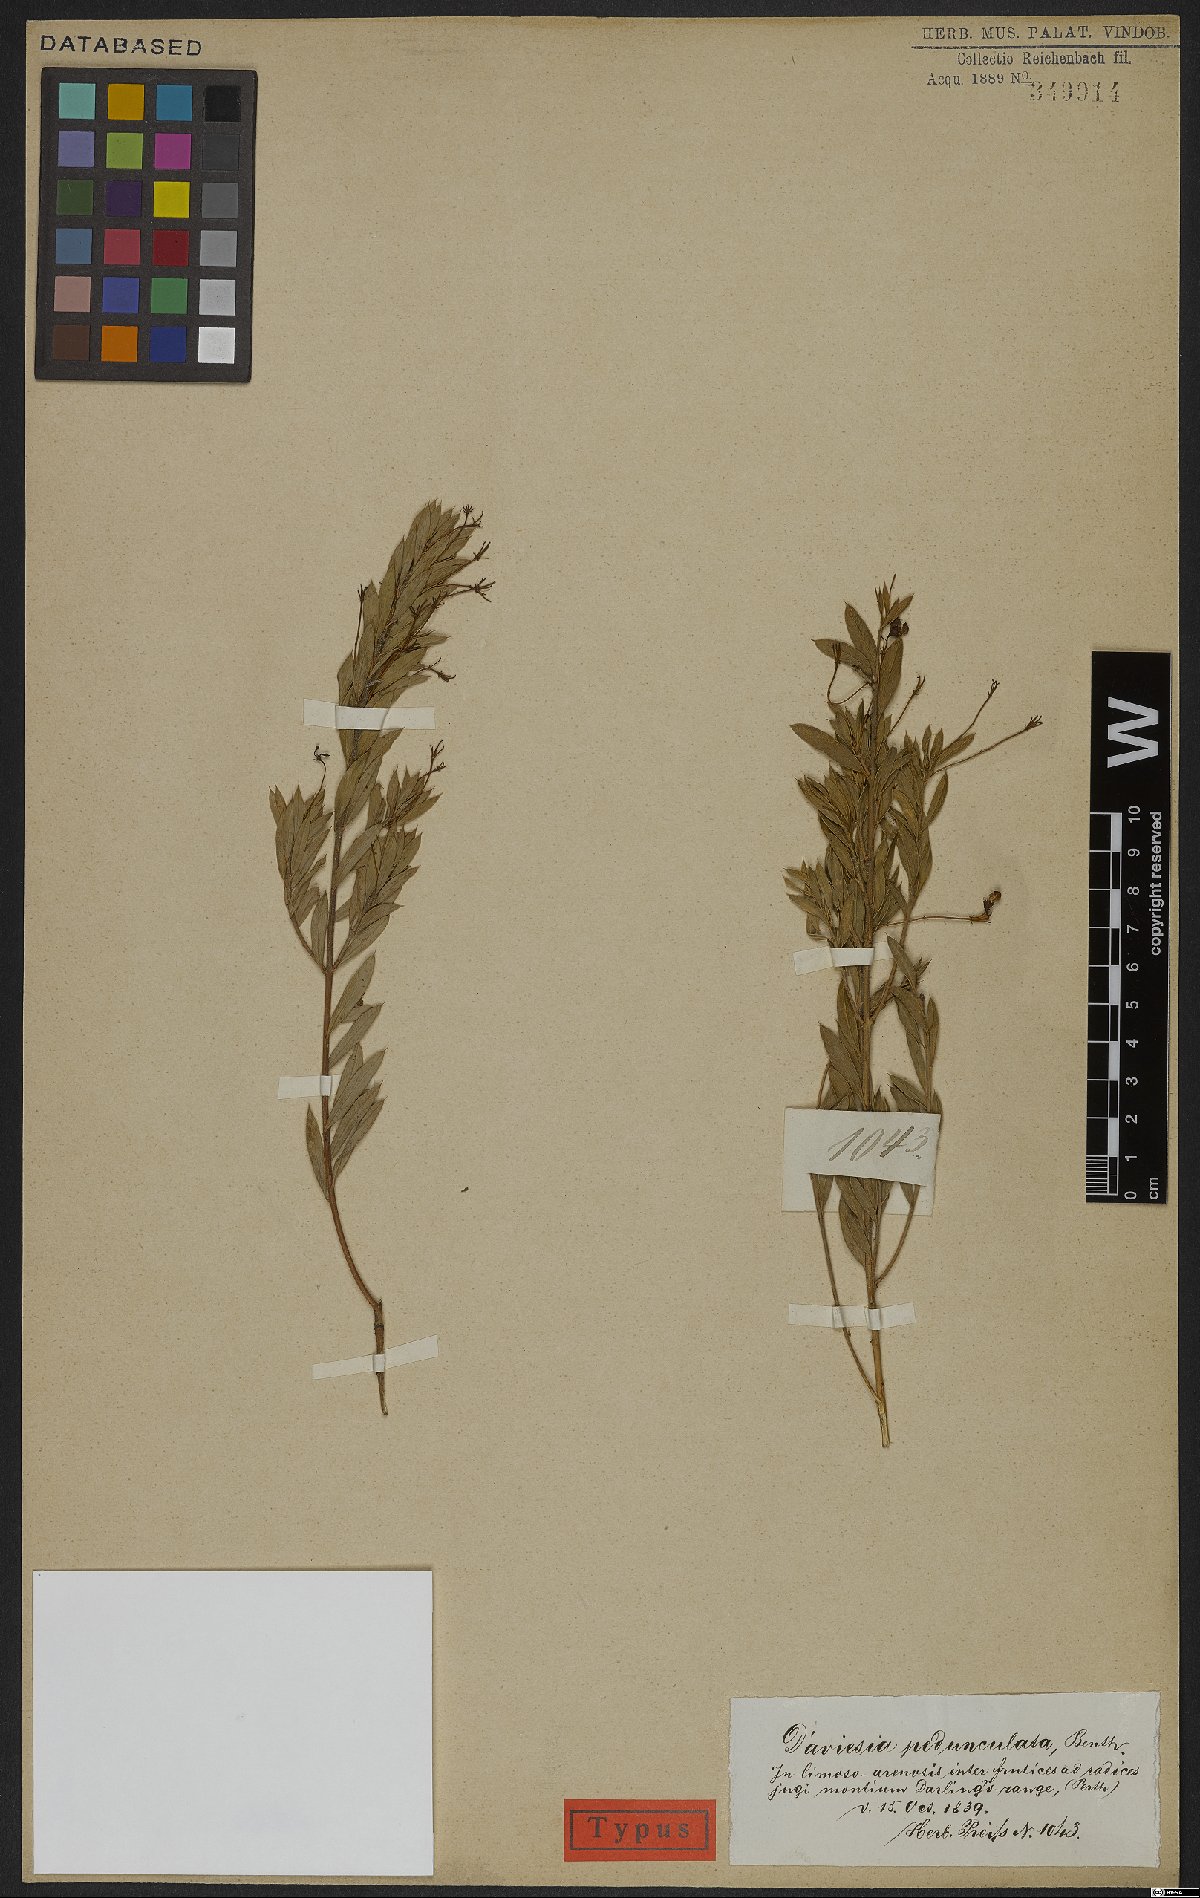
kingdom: Plantae
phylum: Tracheophyta
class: Magnoliopsida
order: Fabales
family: Fabaceae
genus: Daviesia
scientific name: Daviesia pedunculata
